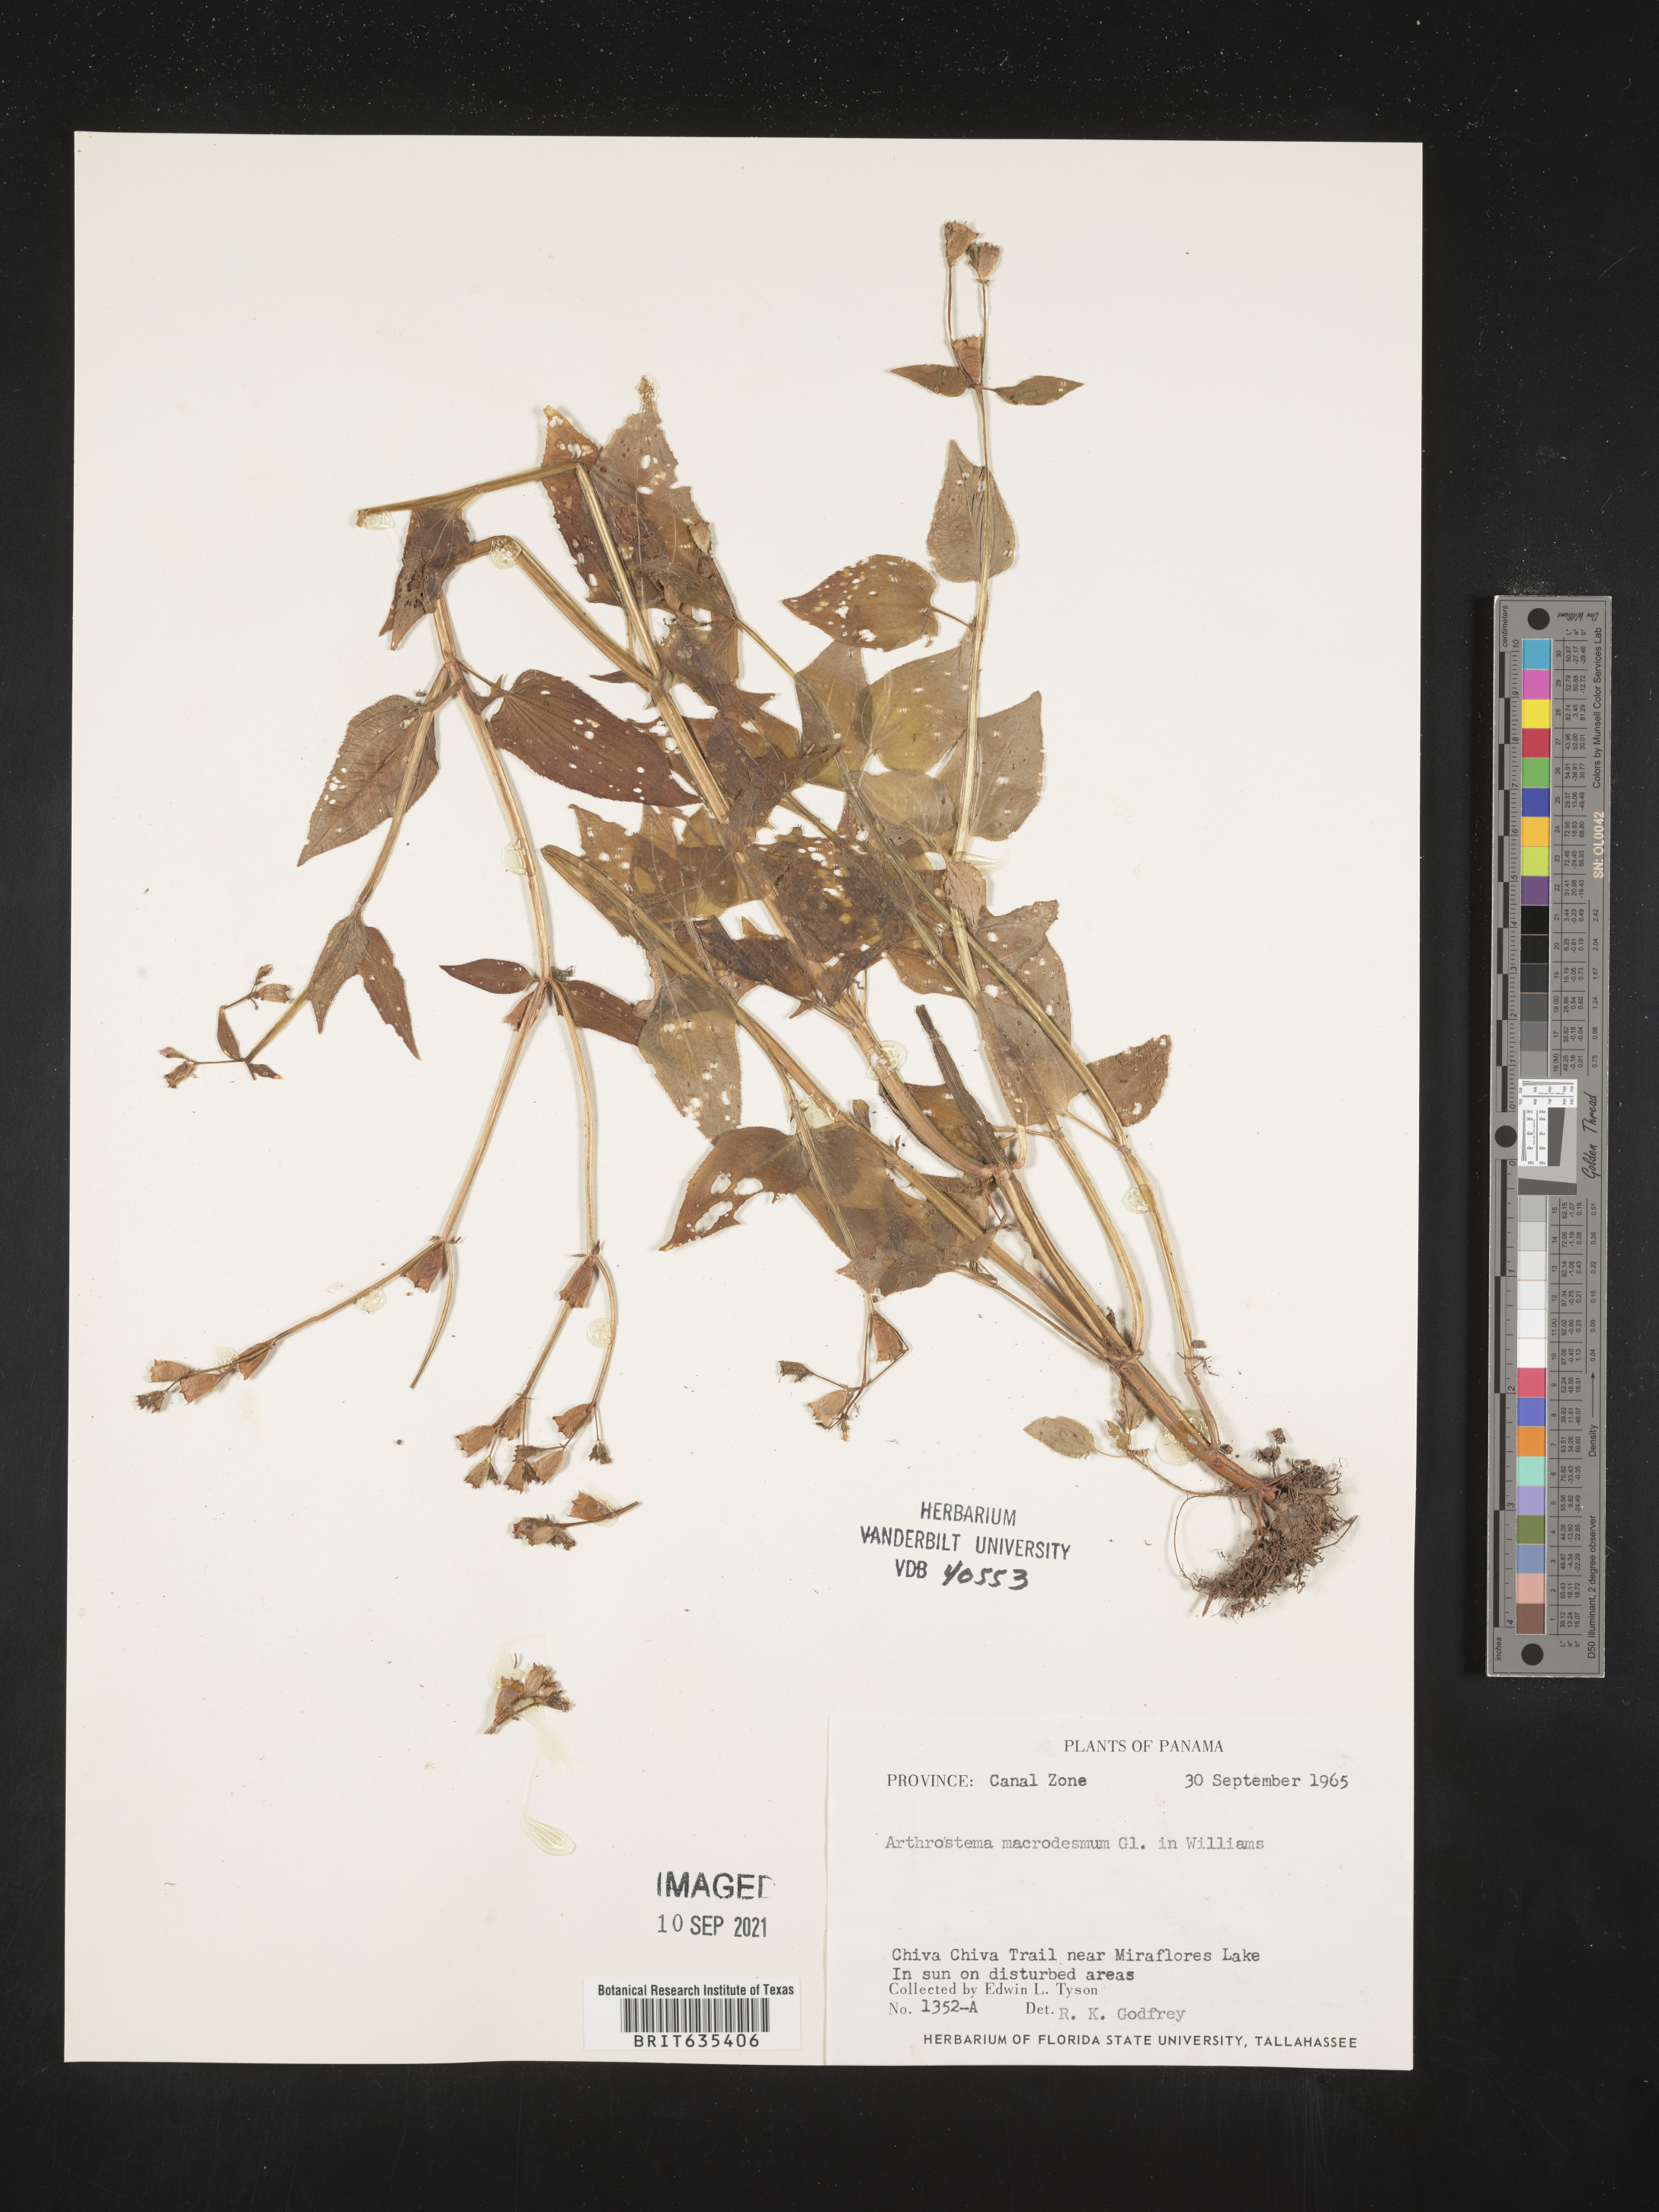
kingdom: Plantae
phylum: Tracheophyta
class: Magnoliopsida
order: Myrtales
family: Melastomataceae
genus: Arthrostemma
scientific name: Arthrostemma
